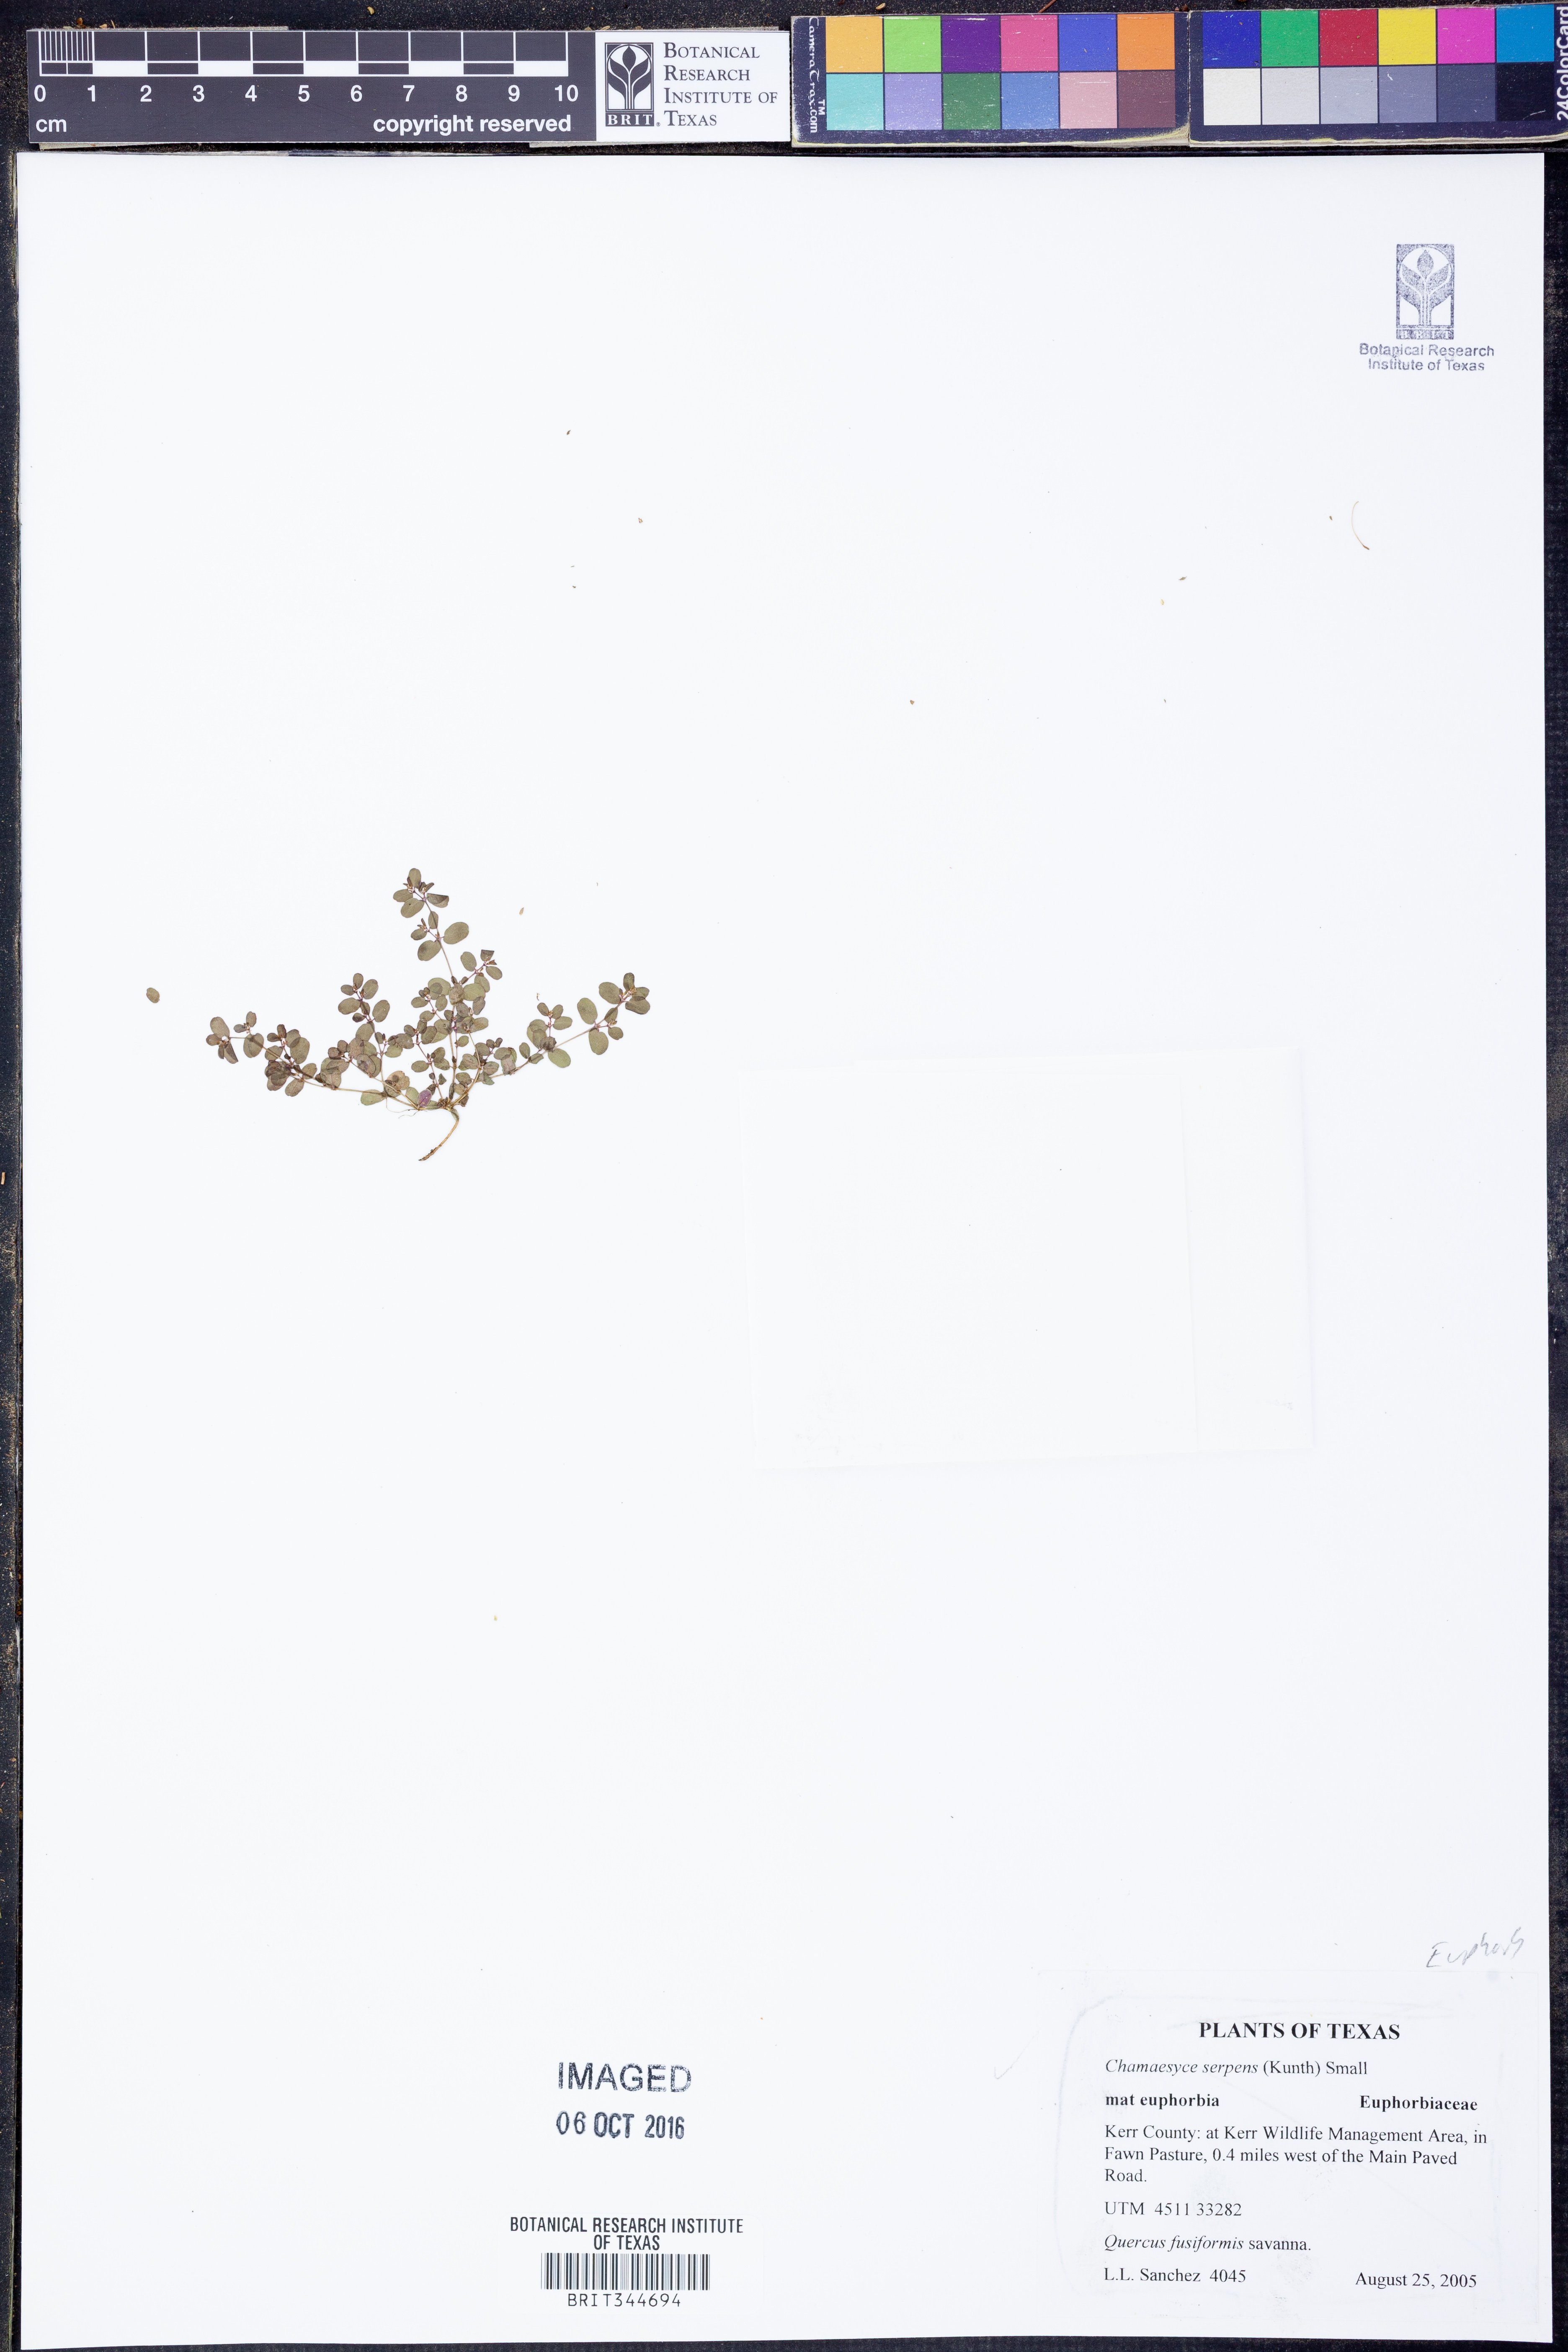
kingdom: Plantae
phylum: Tracheophyta
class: Magnoliopsida
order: Malpighiales
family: Euphorbiaceae
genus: Euphorbia
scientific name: Euphorbia serpens
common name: Matted sandmat
